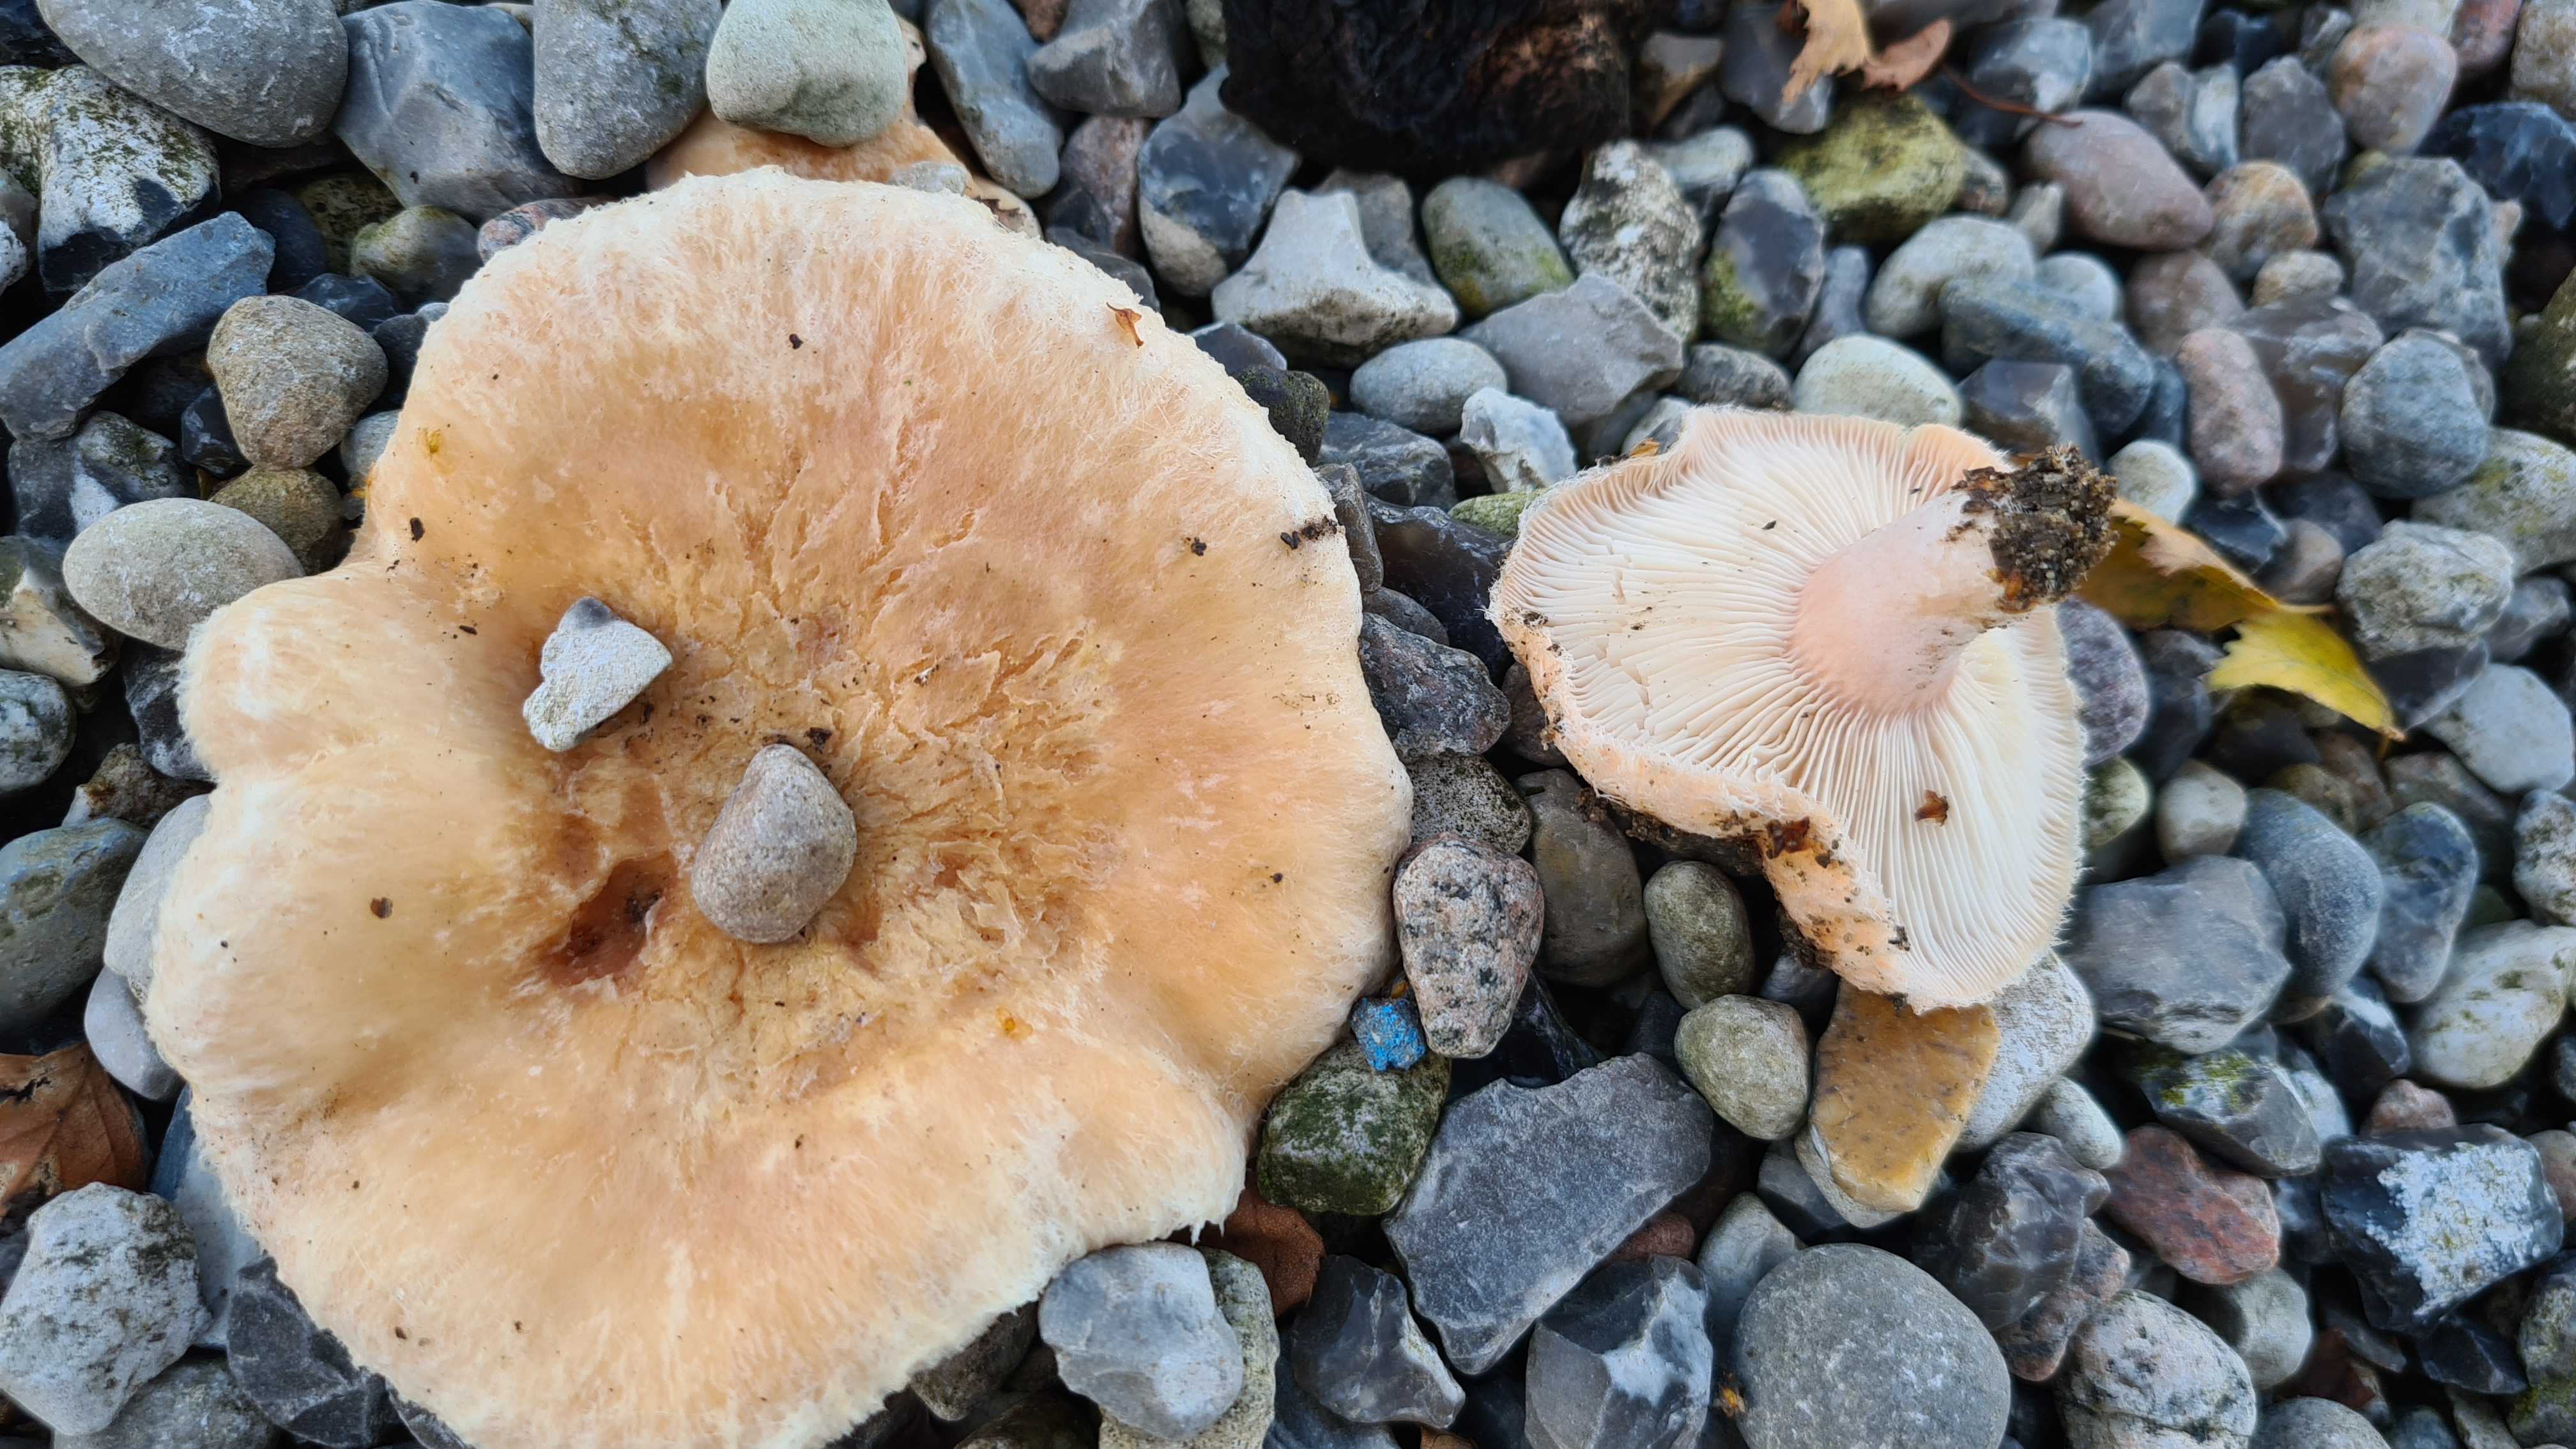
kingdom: Fungi
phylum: Basidiomycota
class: Agaricomycetes
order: Russulales
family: Russulaceae
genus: Lactarius
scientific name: Lactarius pubescens
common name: dunet mælkehat
